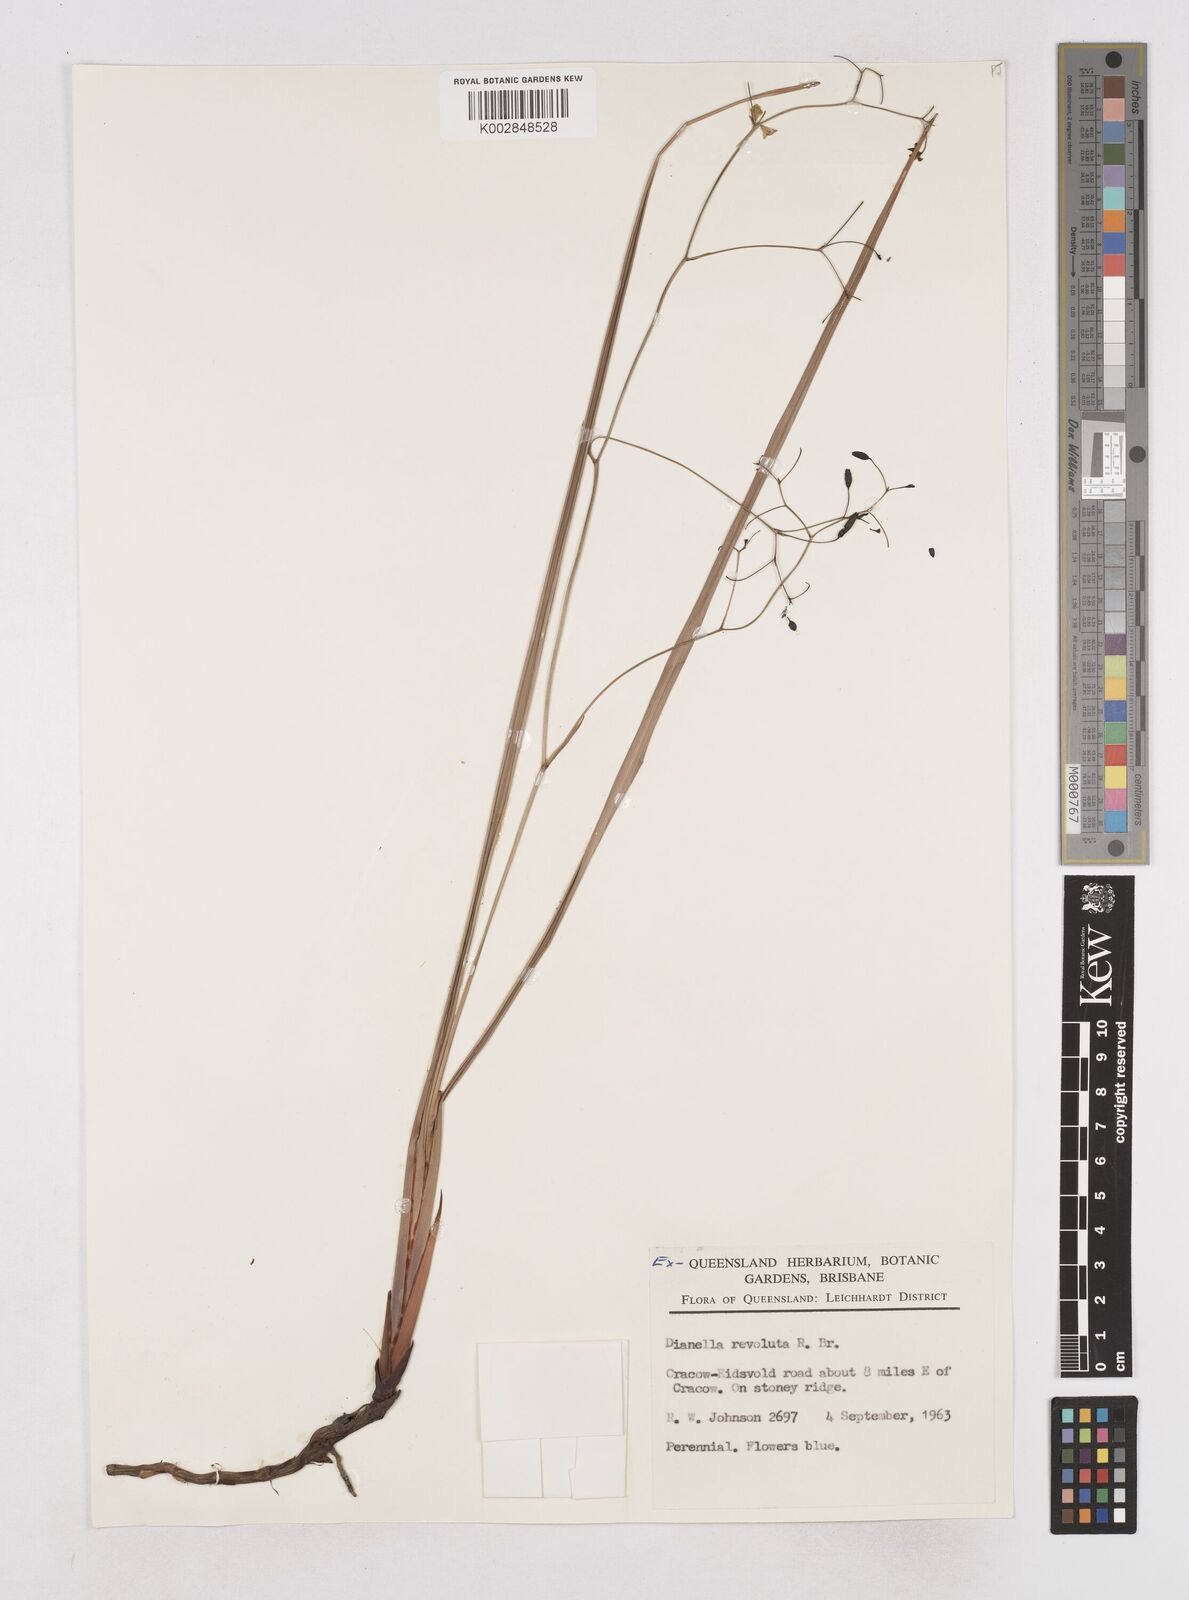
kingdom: Plantae
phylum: Tracheophyta
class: Liliopsida
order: Asparagales
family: Asphodelaceae
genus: Dianella
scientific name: Dianella revoluta
